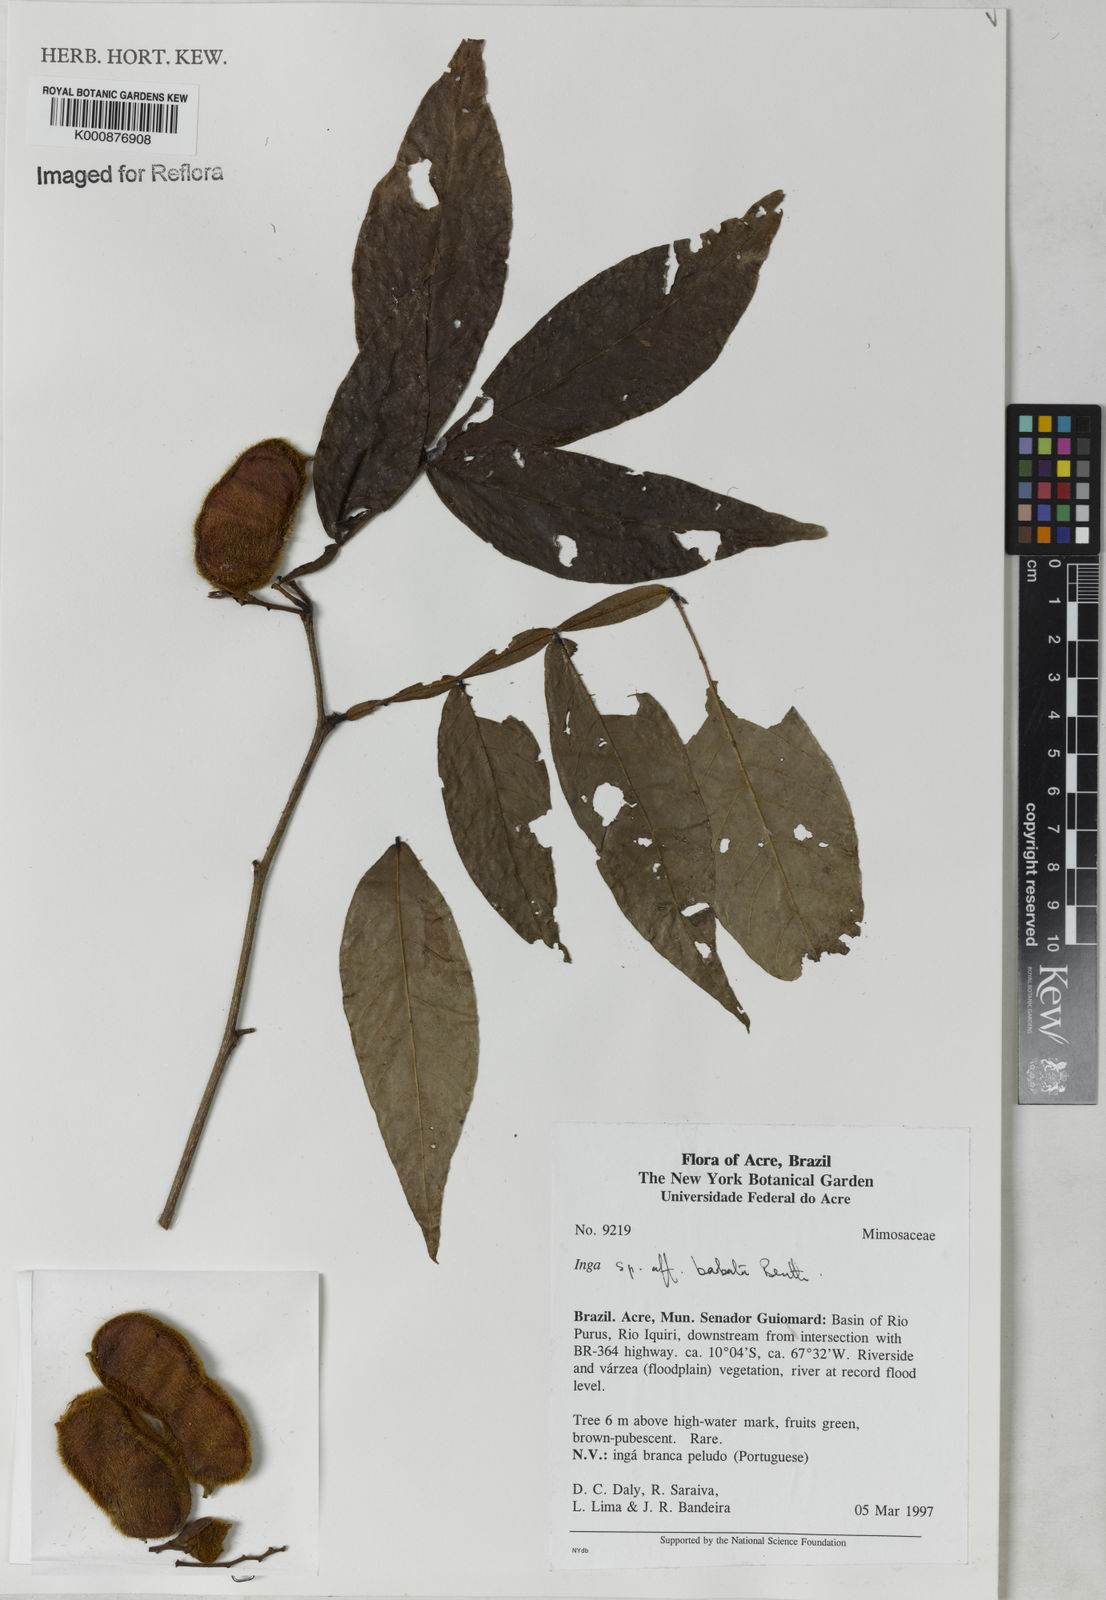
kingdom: Plantae
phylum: Tracheophyta
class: Magnoliopsida
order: Fabales
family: Fabaceae
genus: Inga
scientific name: Inga barbata
